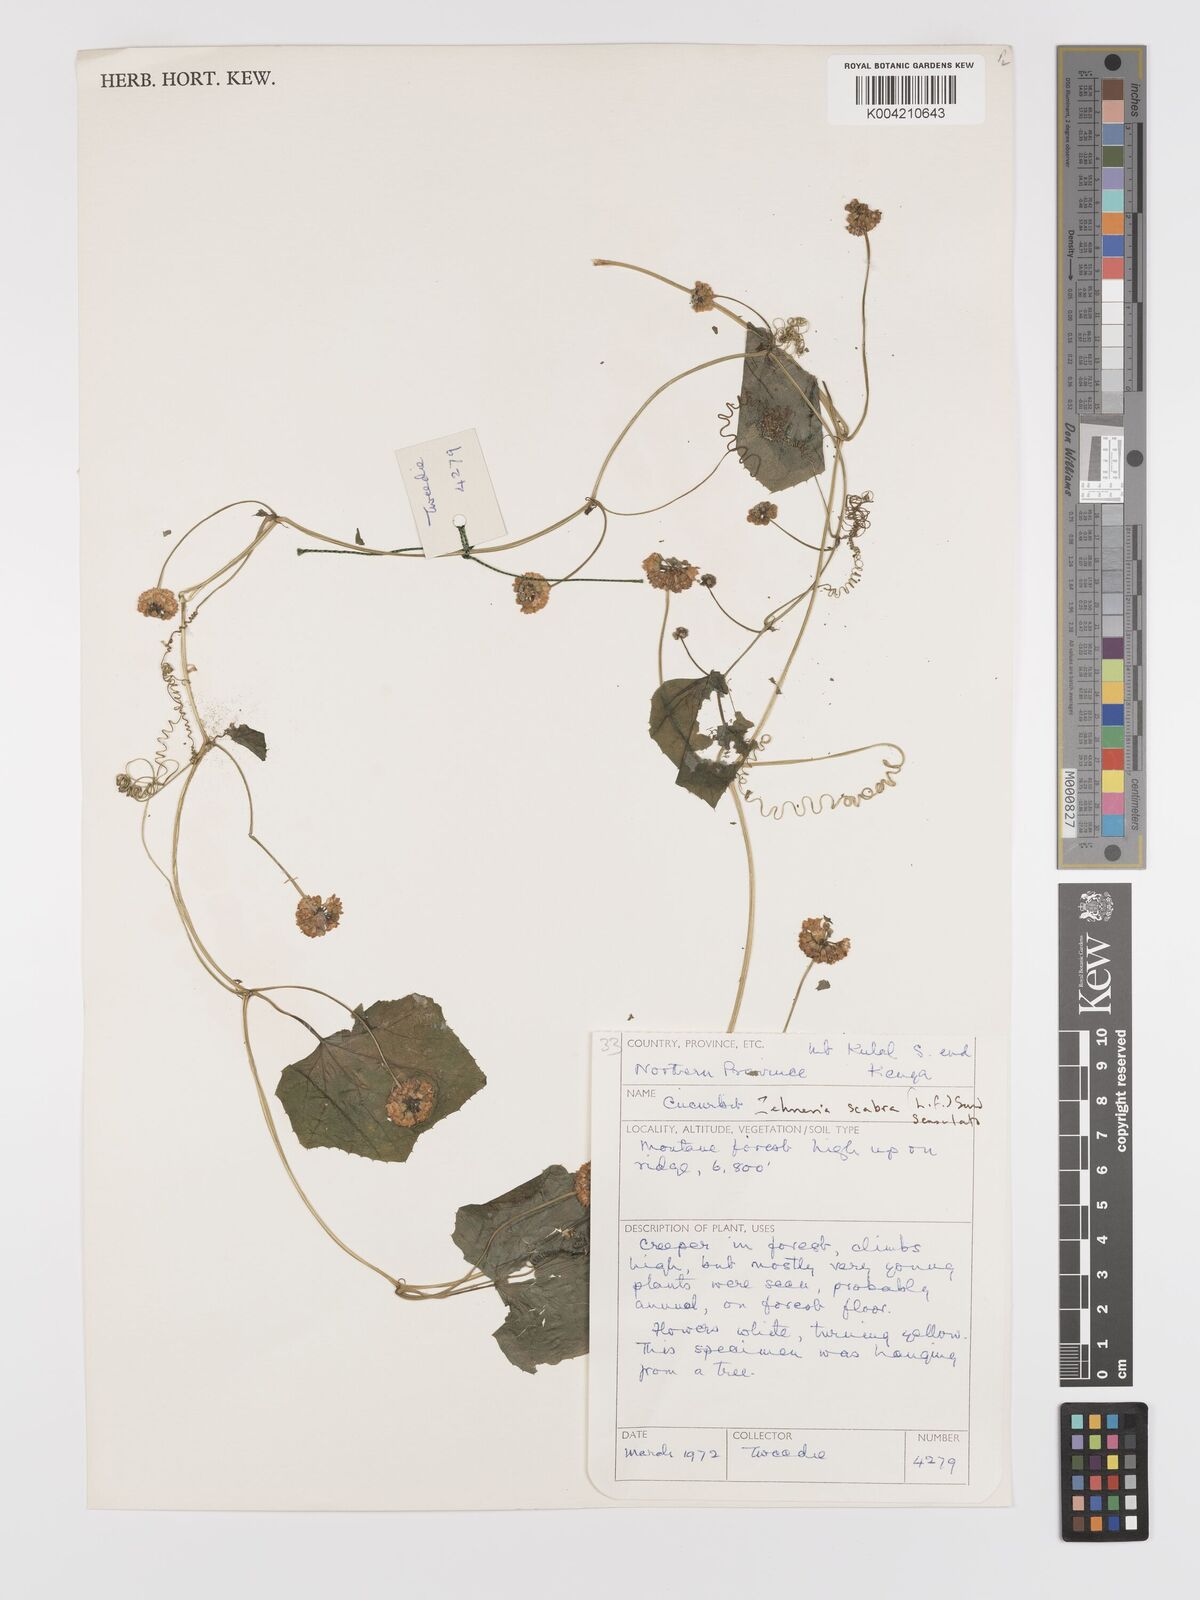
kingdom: Plantae
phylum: Tracheophyta
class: Magnoliopsida
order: Cucurbitales
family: Cucurbitaceae
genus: Zehneria
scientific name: Zehneria
